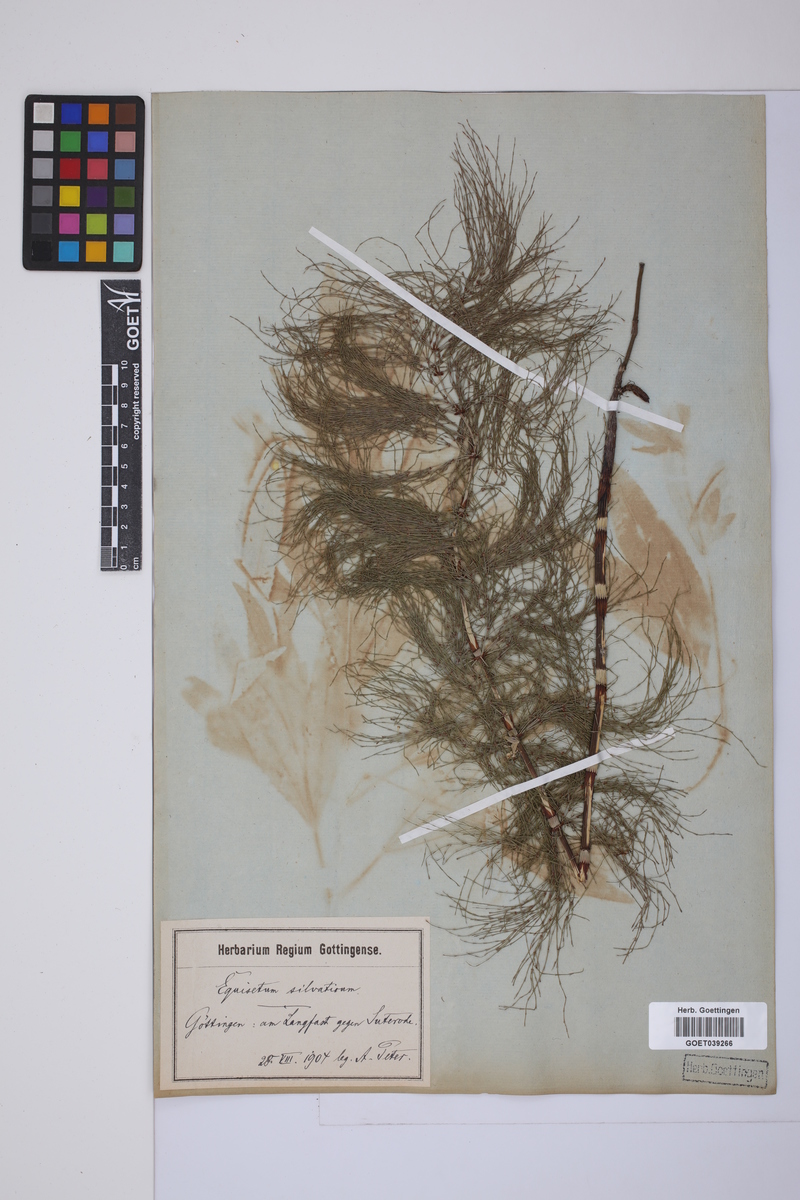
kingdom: Plantae
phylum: Tracheophyta
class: Polypodiopsida
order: Equisetales
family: Equisetaceae
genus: Equisetum
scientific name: Equisetum sylvaticum
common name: Wood horsetail
